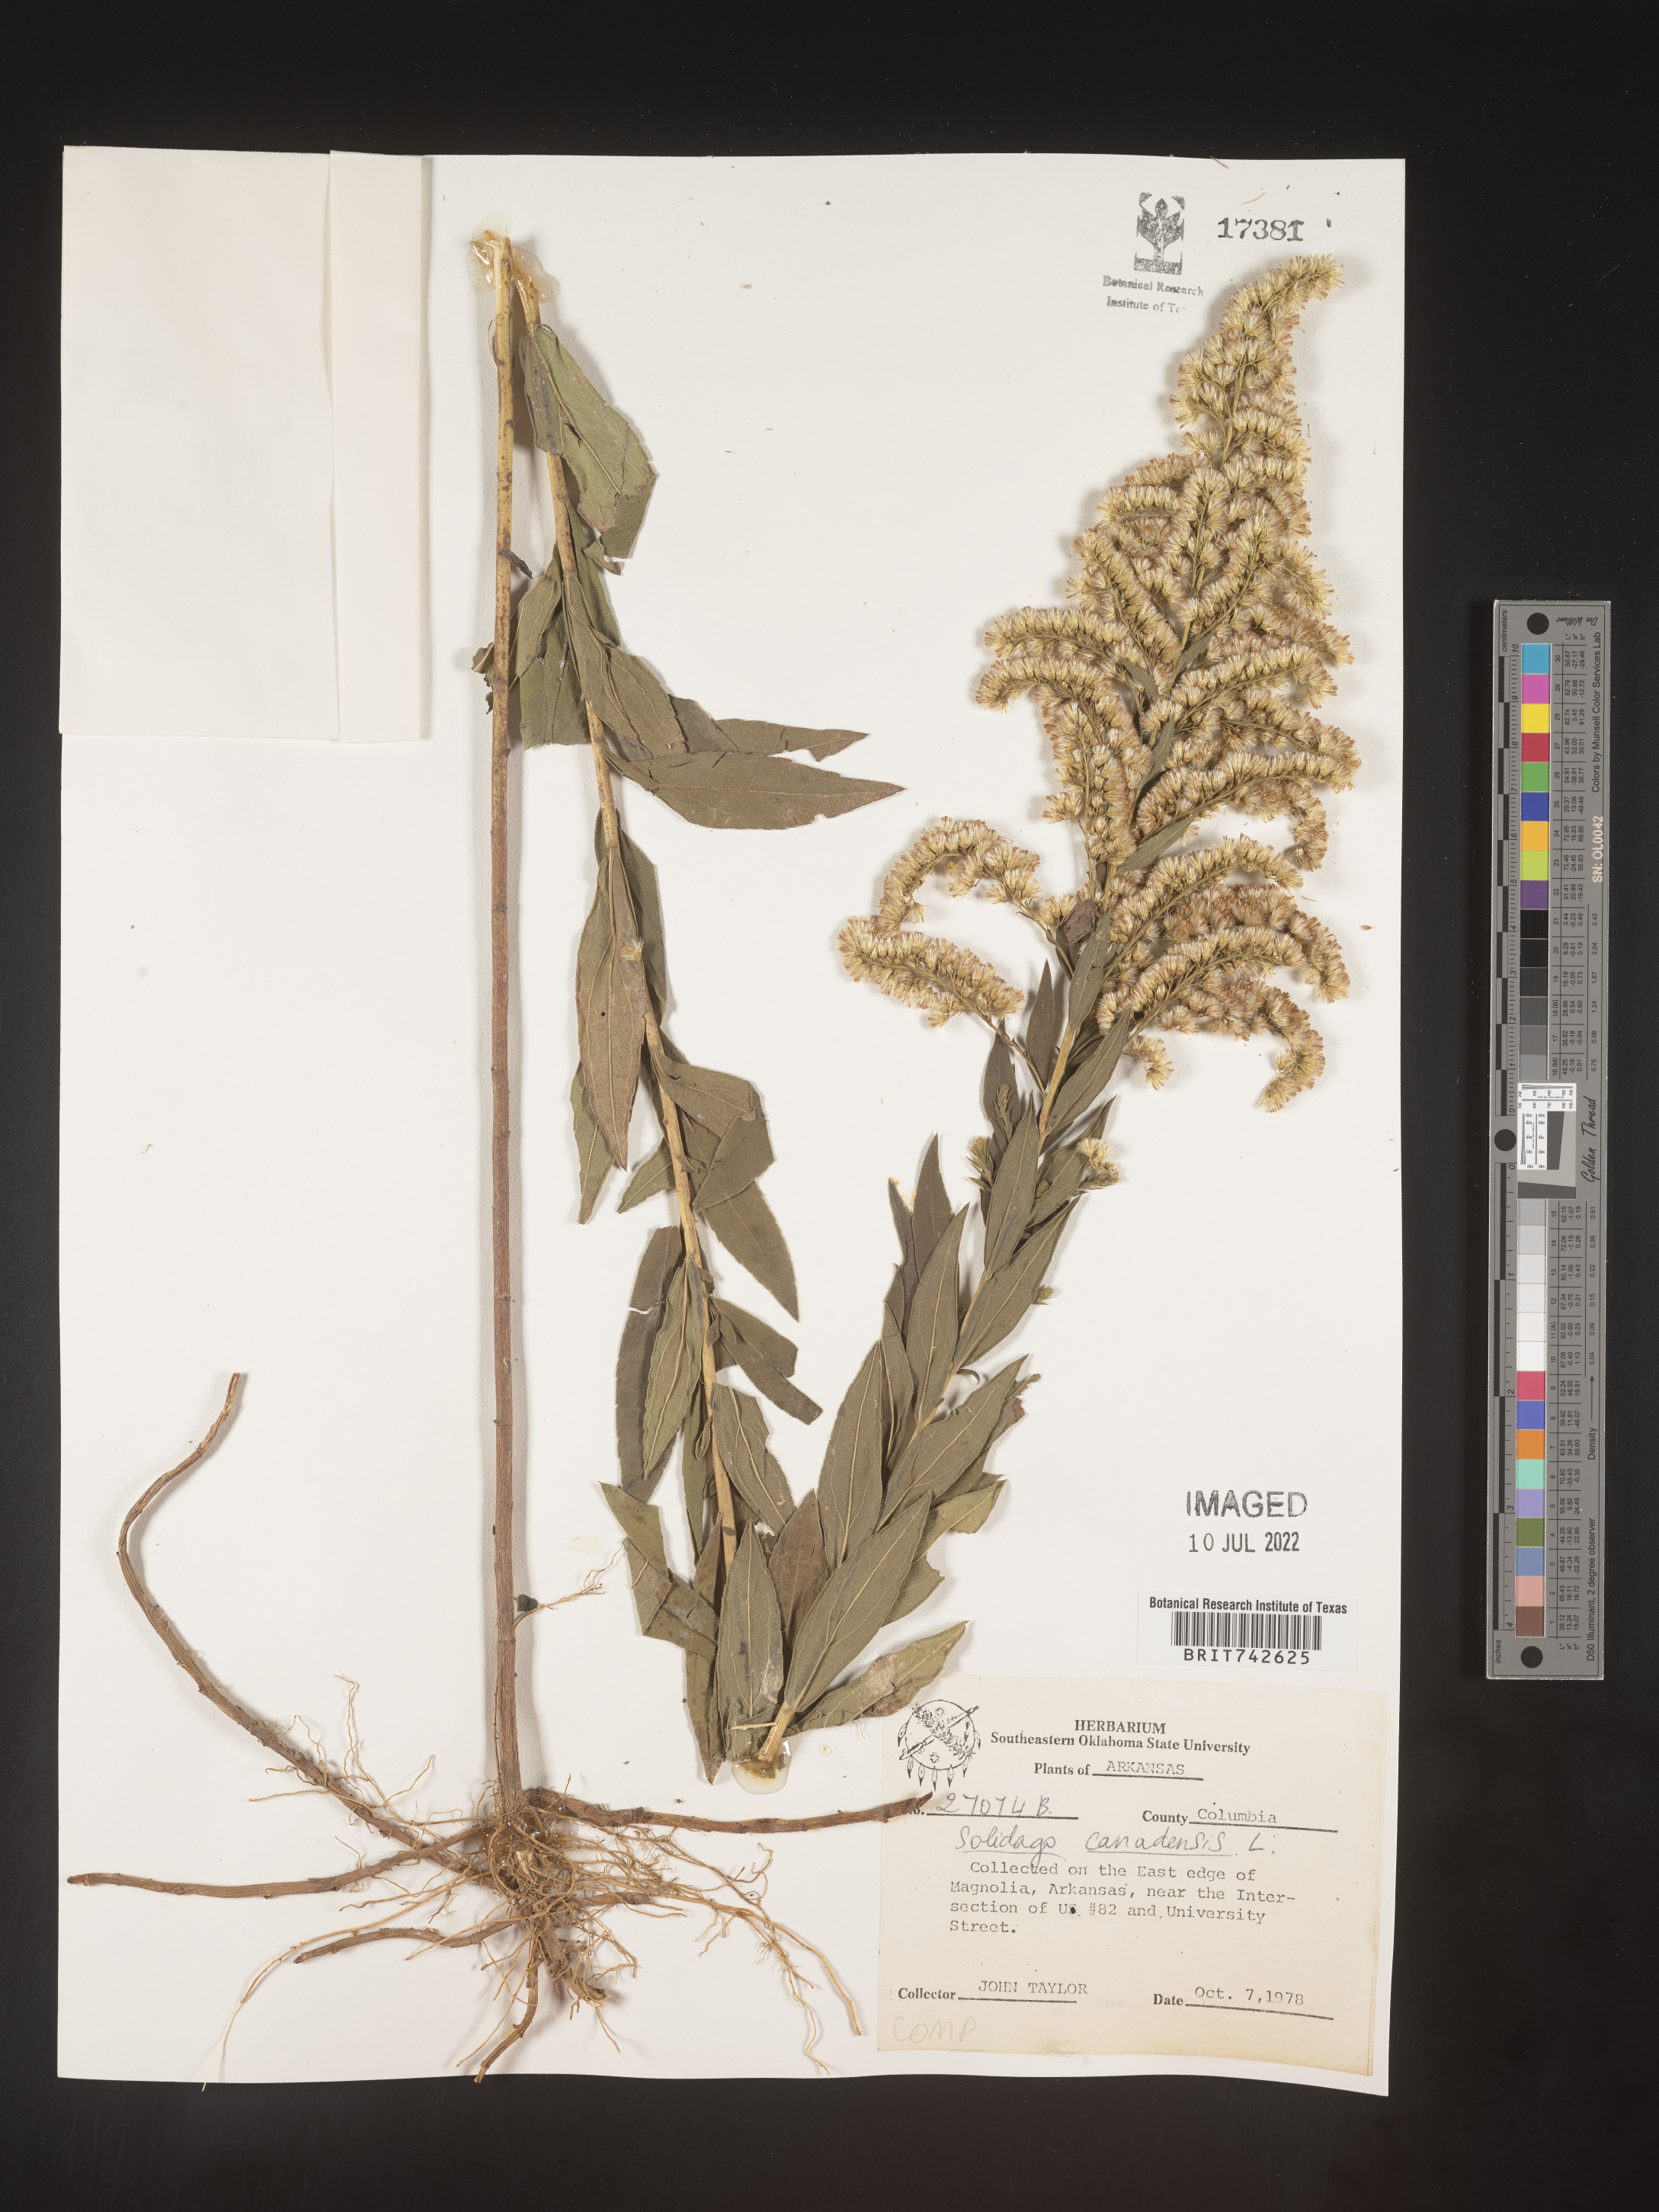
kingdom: Plantae
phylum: Tracheophyta
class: Magnoliopsida
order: Asterales
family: Asteraceae
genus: Solidago
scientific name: Solidago altissima
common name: Late goldenrod
